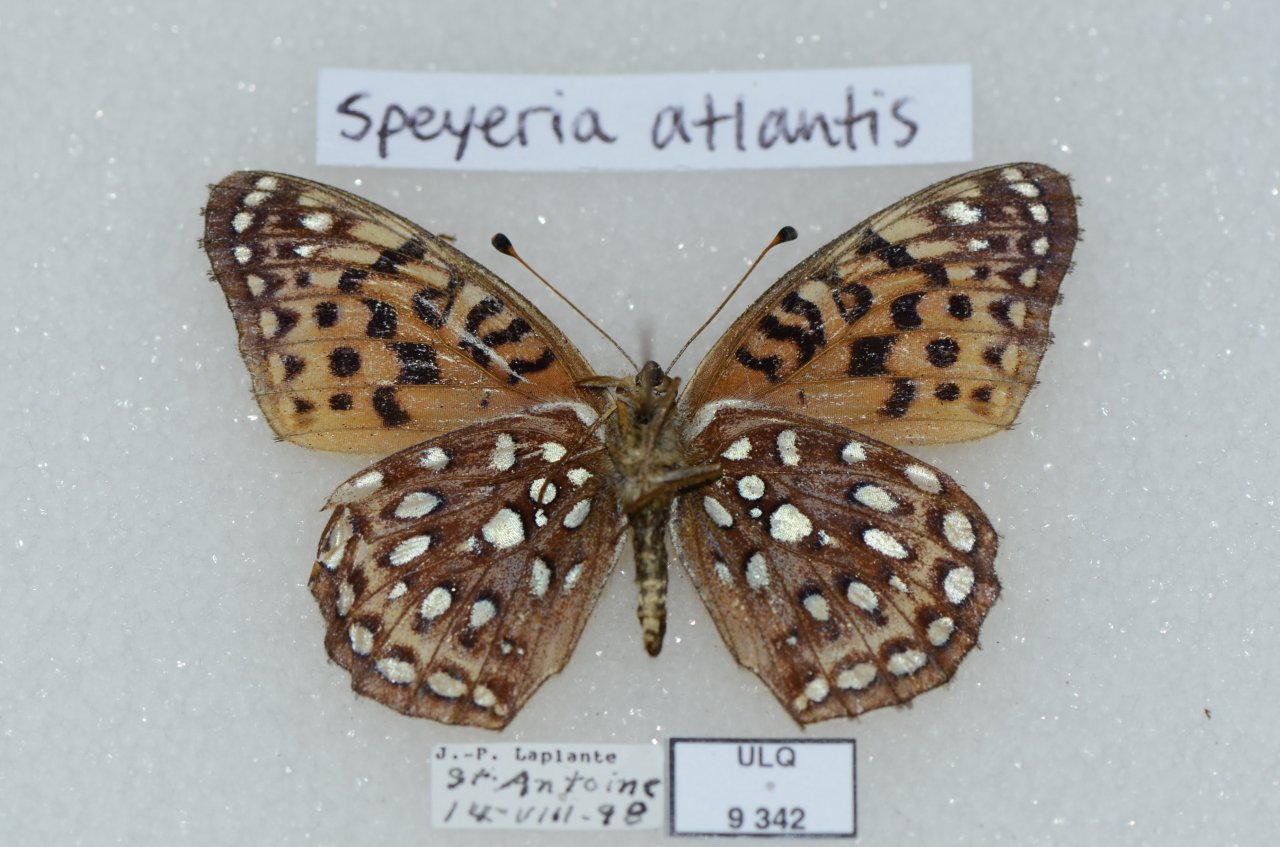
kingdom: Animalia
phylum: Arthropoda
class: Insecta
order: Lepidoptera
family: Nymphalidae
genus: Speyeria
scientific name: Speyeria atlantis
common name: Atlantis Fritillary
